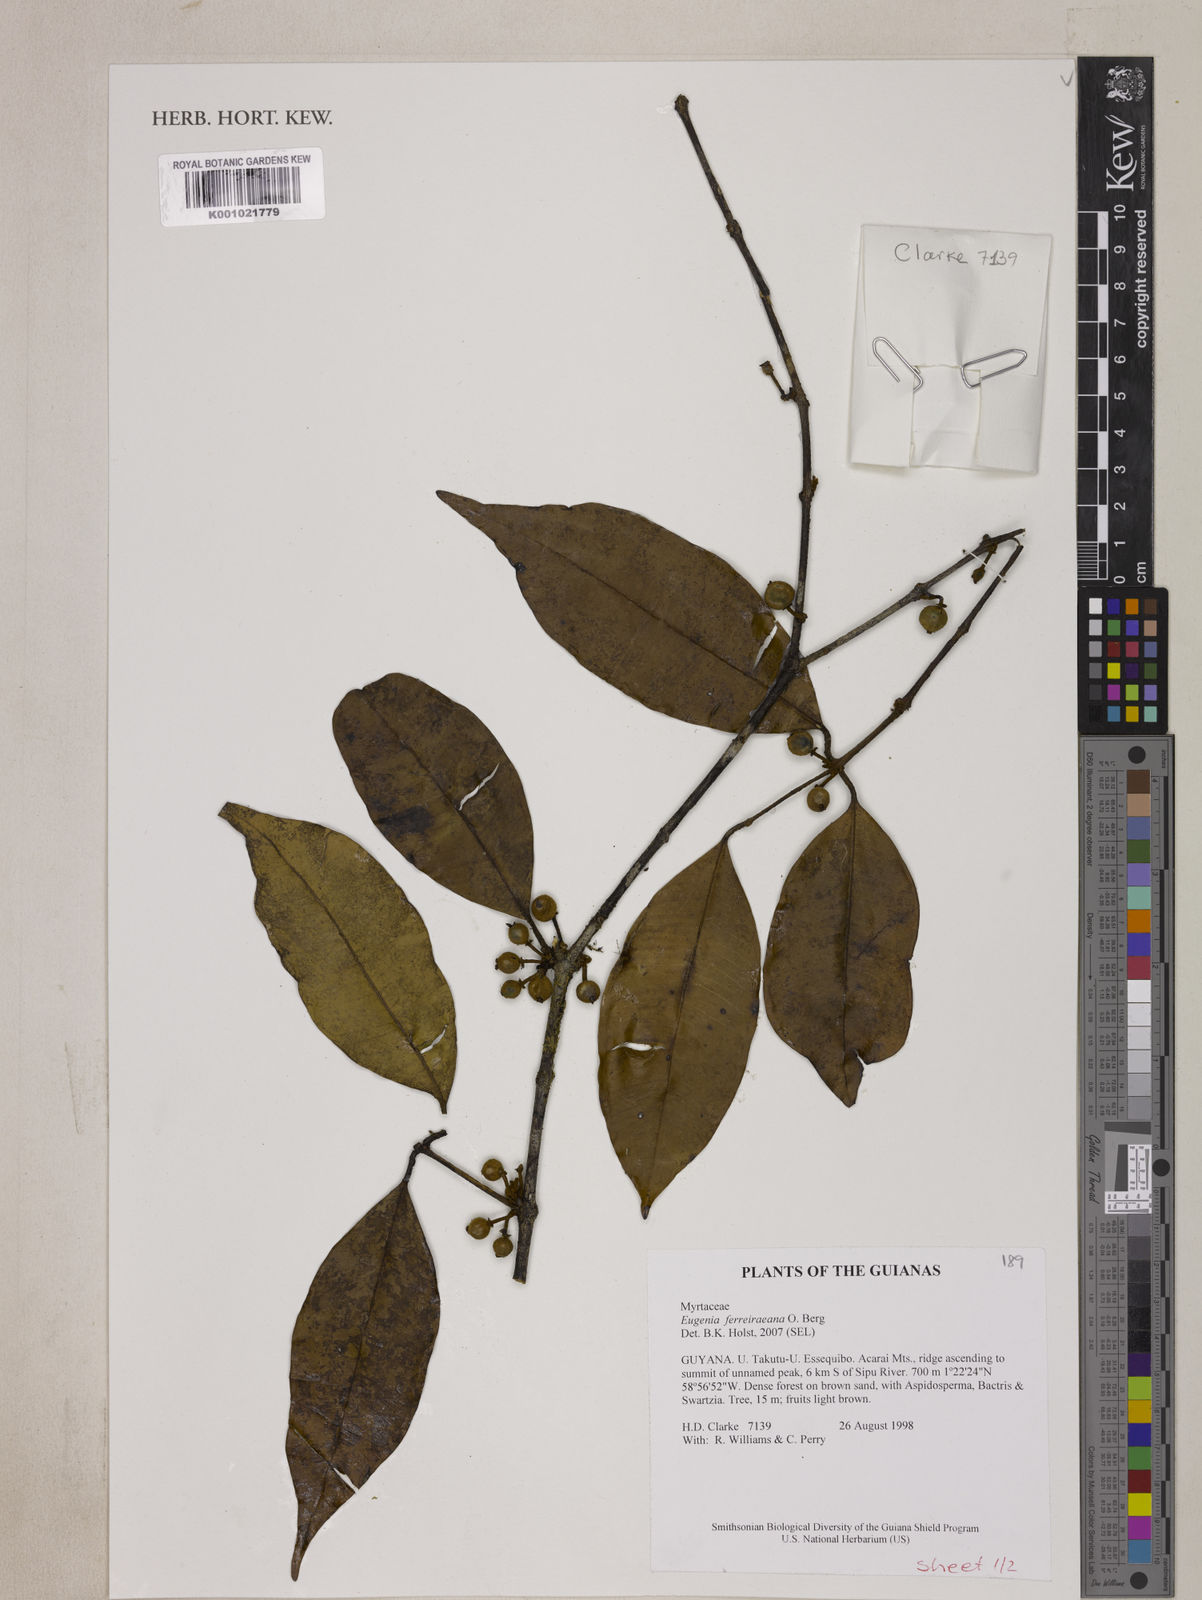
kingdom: Plantae
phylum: Tracheophyta
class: Magnoliopsida
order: Myrtales
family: Myrtaceae
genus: Eugenia
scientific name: Eugenia ferreiraeana
